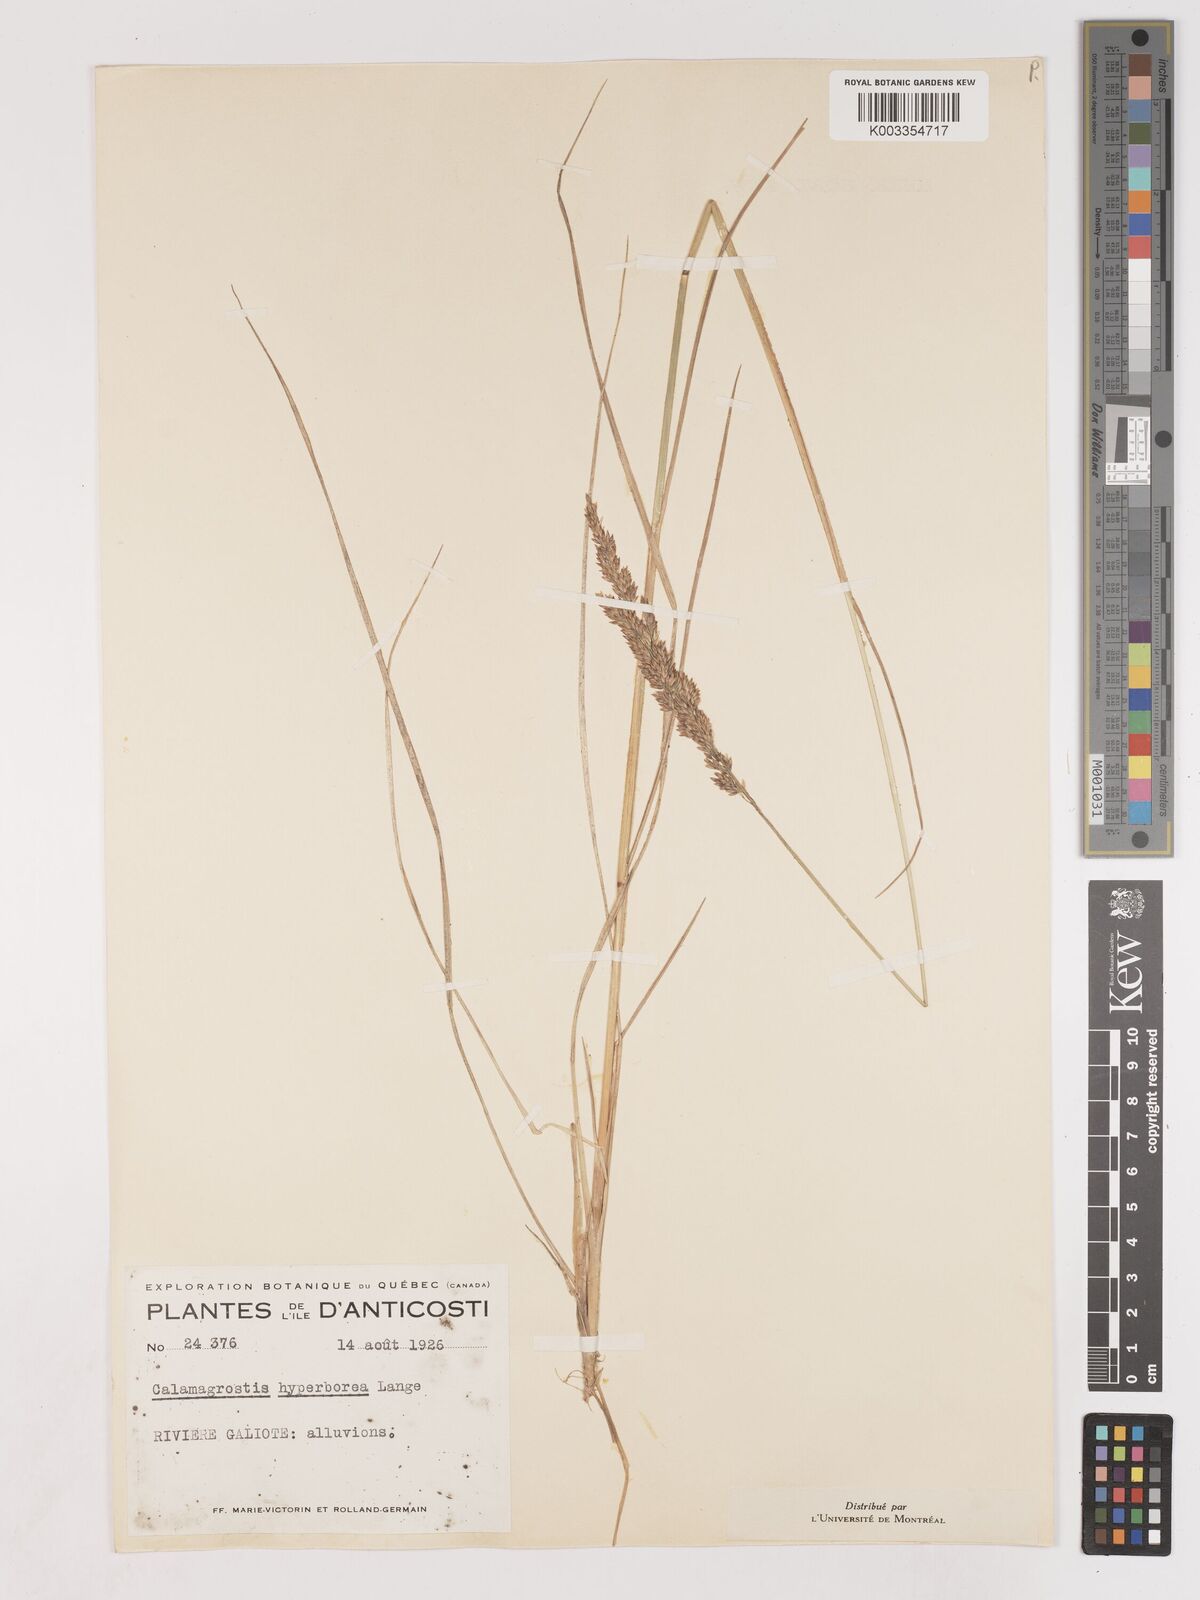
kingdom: Plantae
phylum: Tracheophyta
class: Liliopsida
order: Poales
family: Poaceae
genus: Cinnagrostis
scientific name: Cinnagrostis recta
